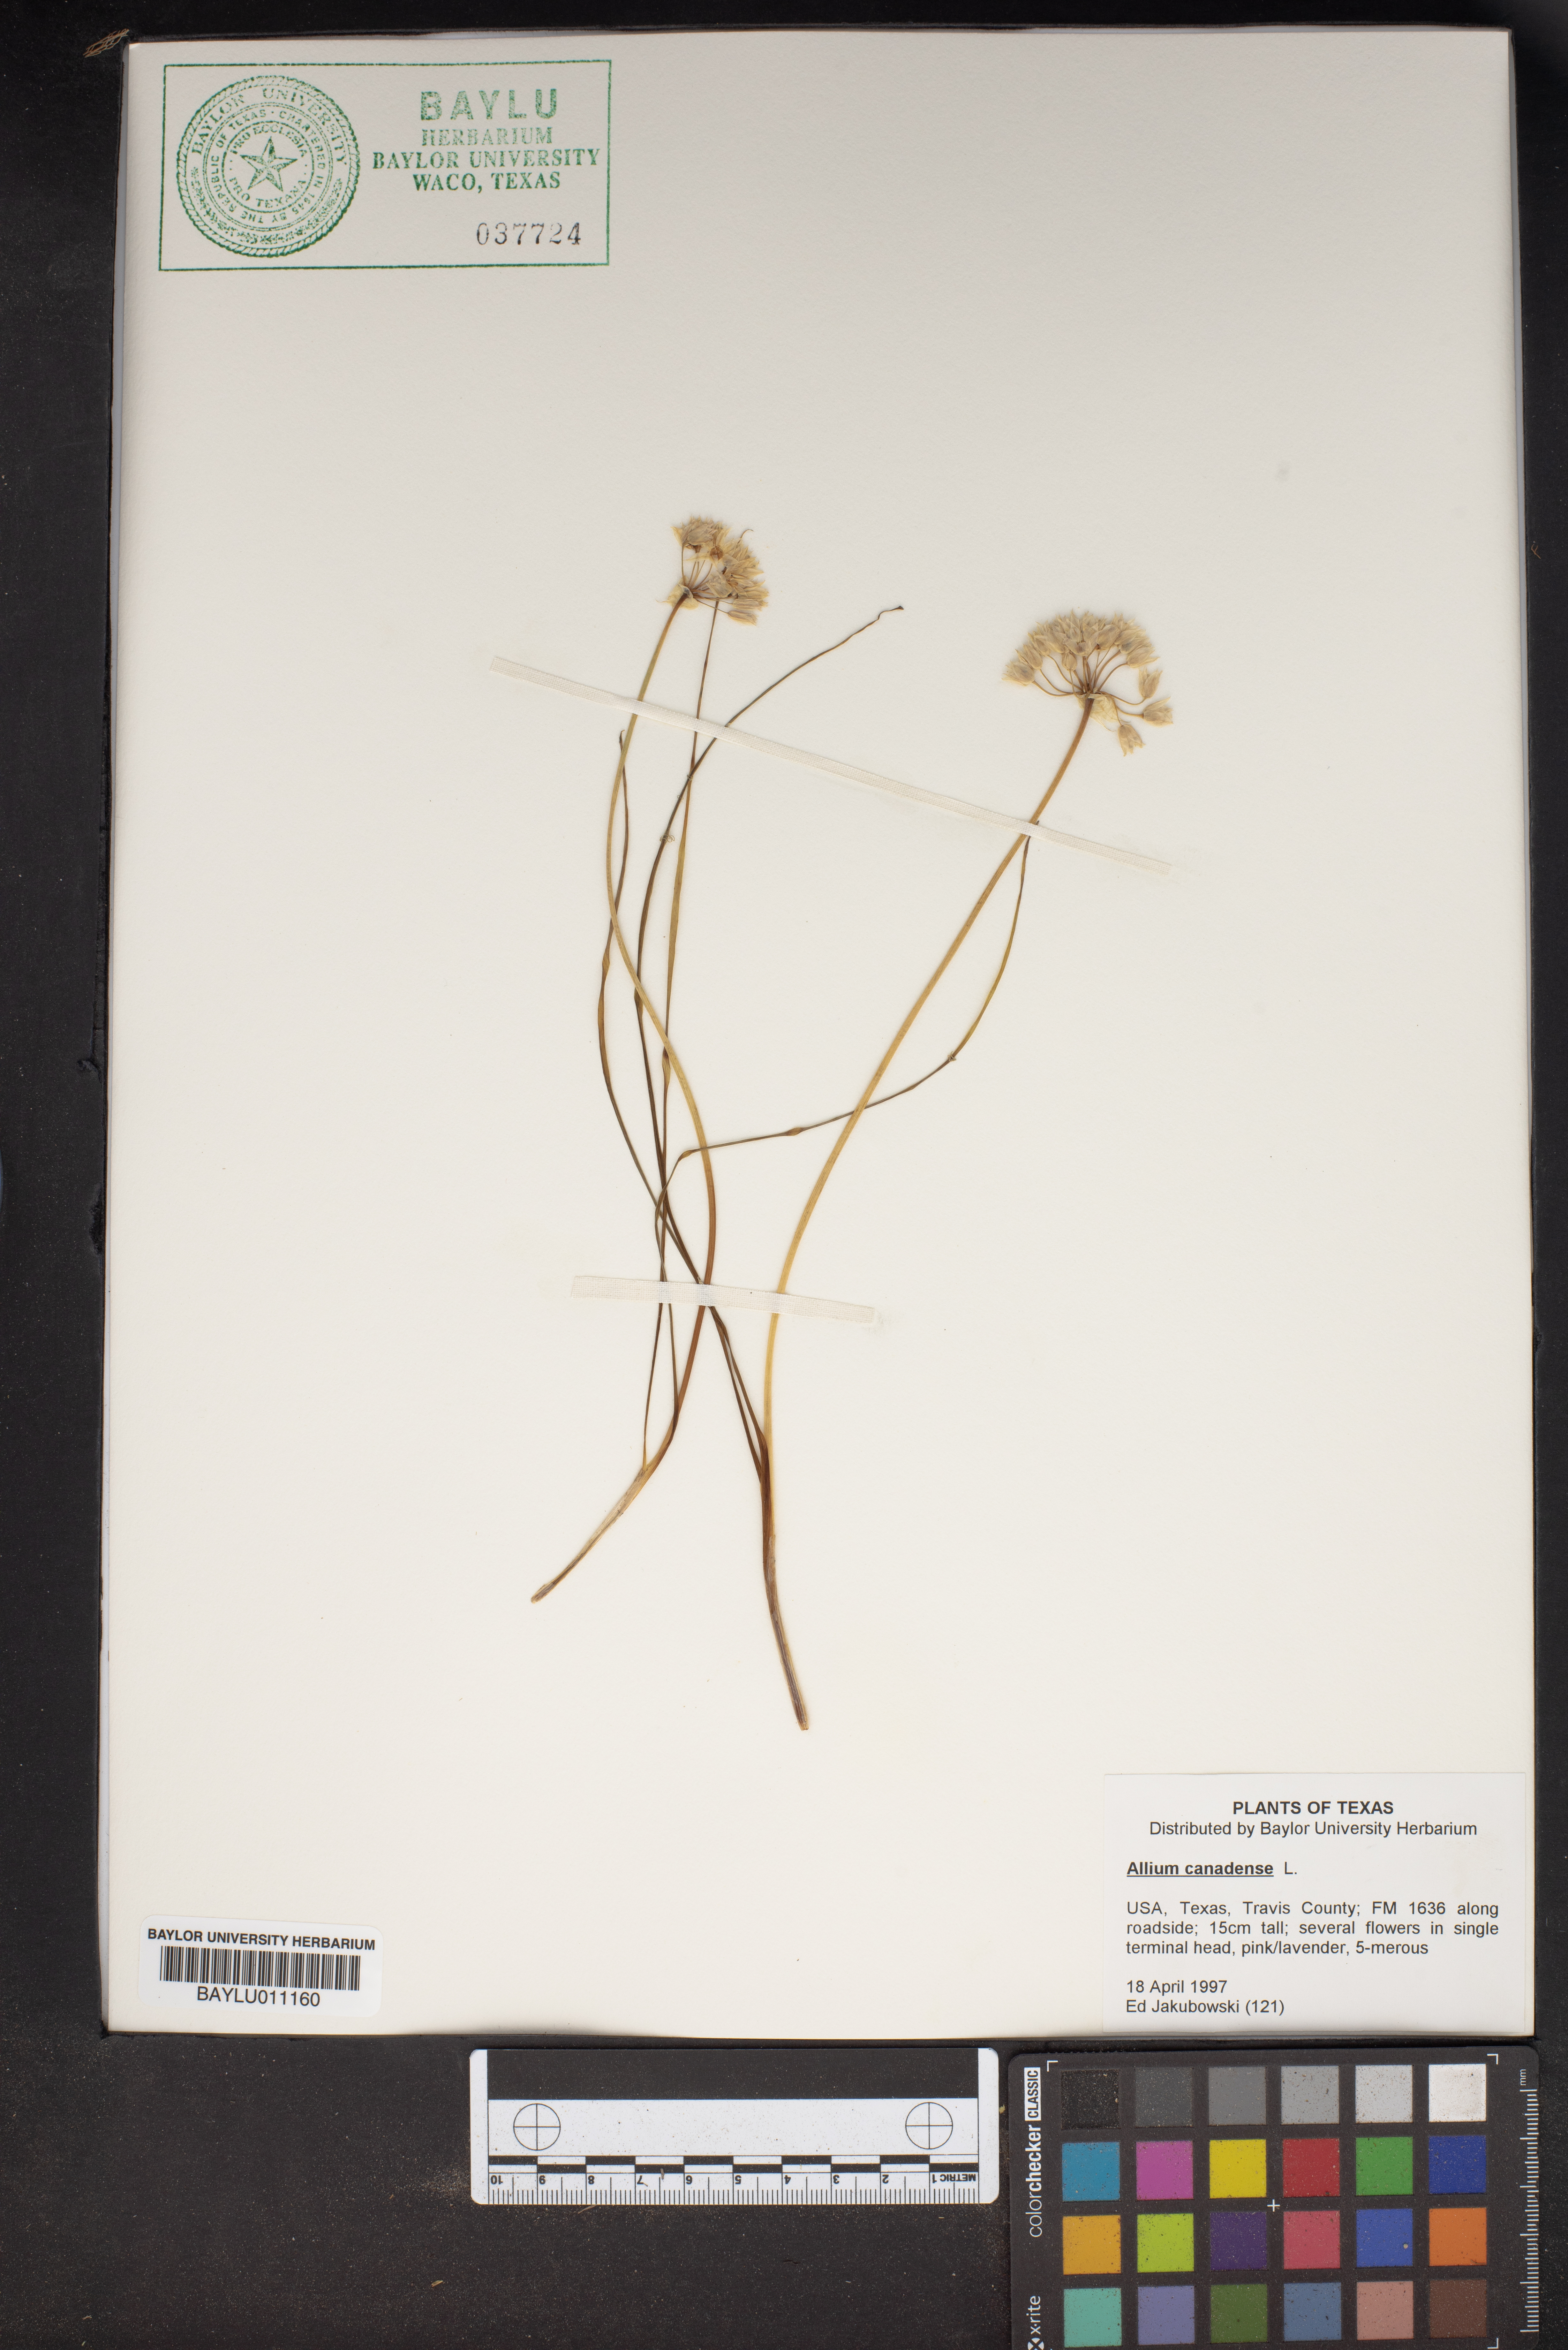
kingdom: Plantae
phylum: Tracheophyta
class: Liliopsida
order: Asparagales
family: Amaryllidaceae
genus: Allium
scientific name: Allium canadense
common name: Meadow garlic
